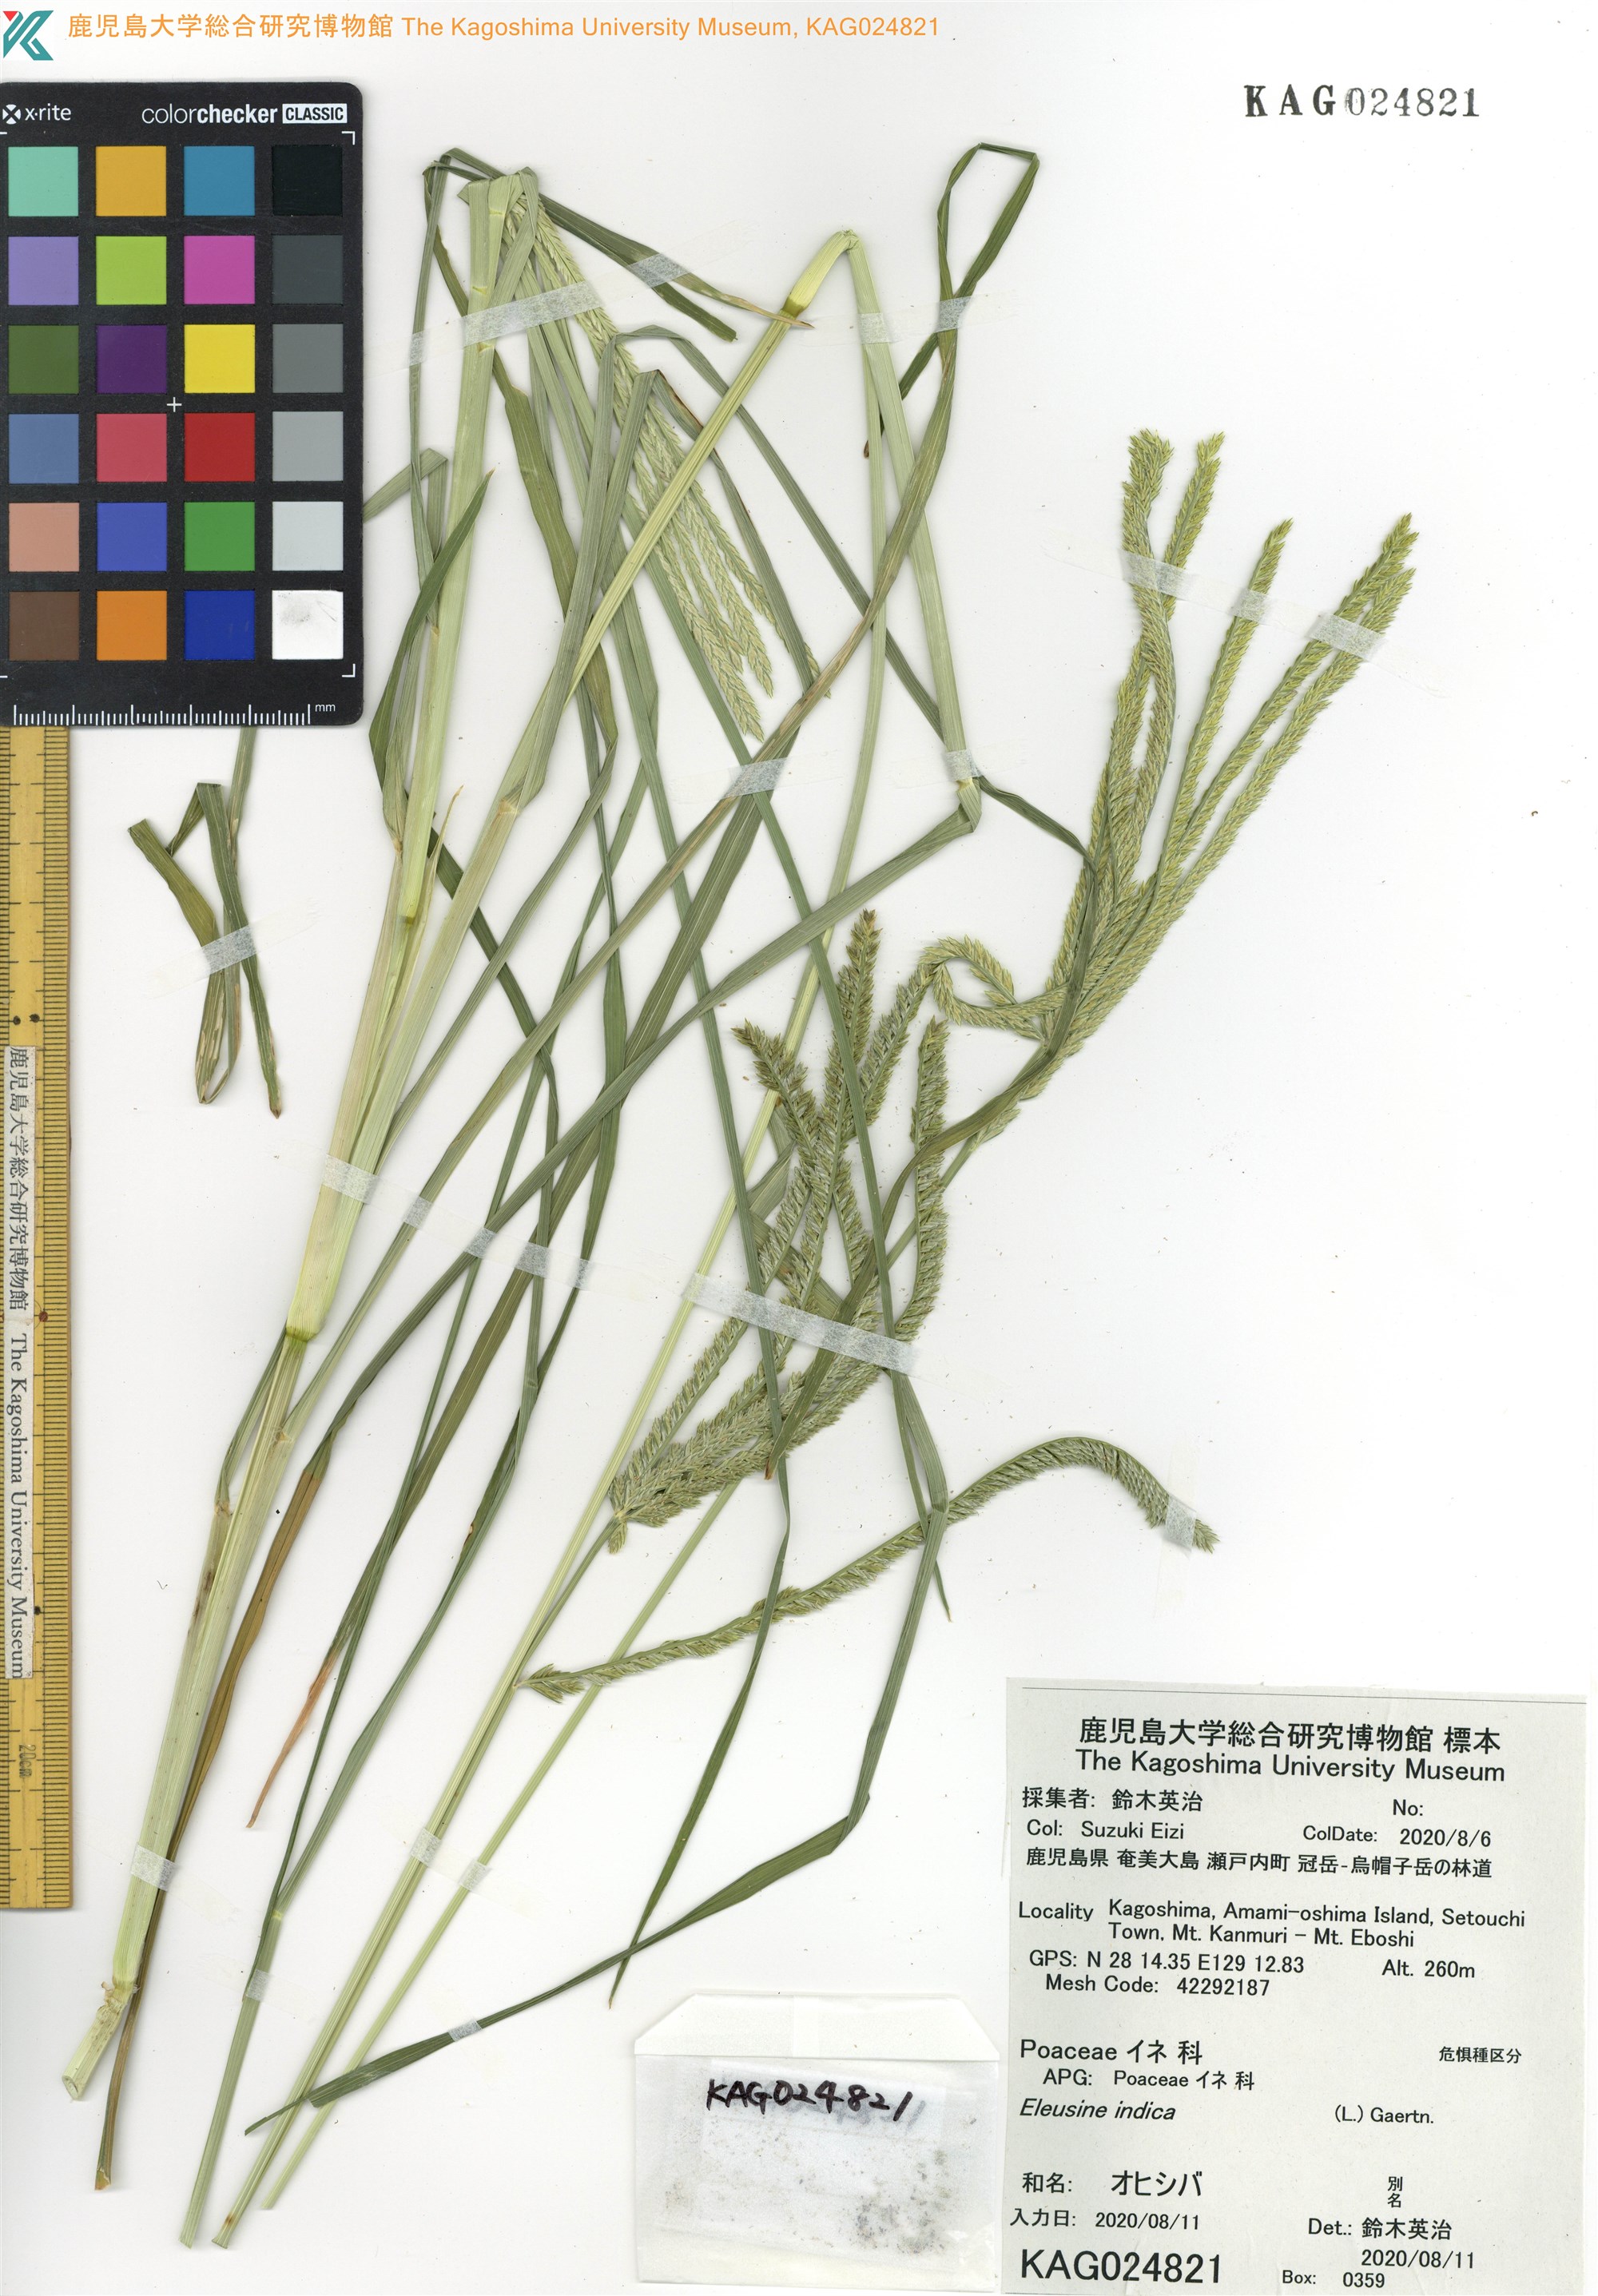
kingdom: Plantae
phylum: Tracheophyta
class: Liliopsida
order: Poales
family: Poaceae
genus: Eleusine
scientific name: Eleusine indica
